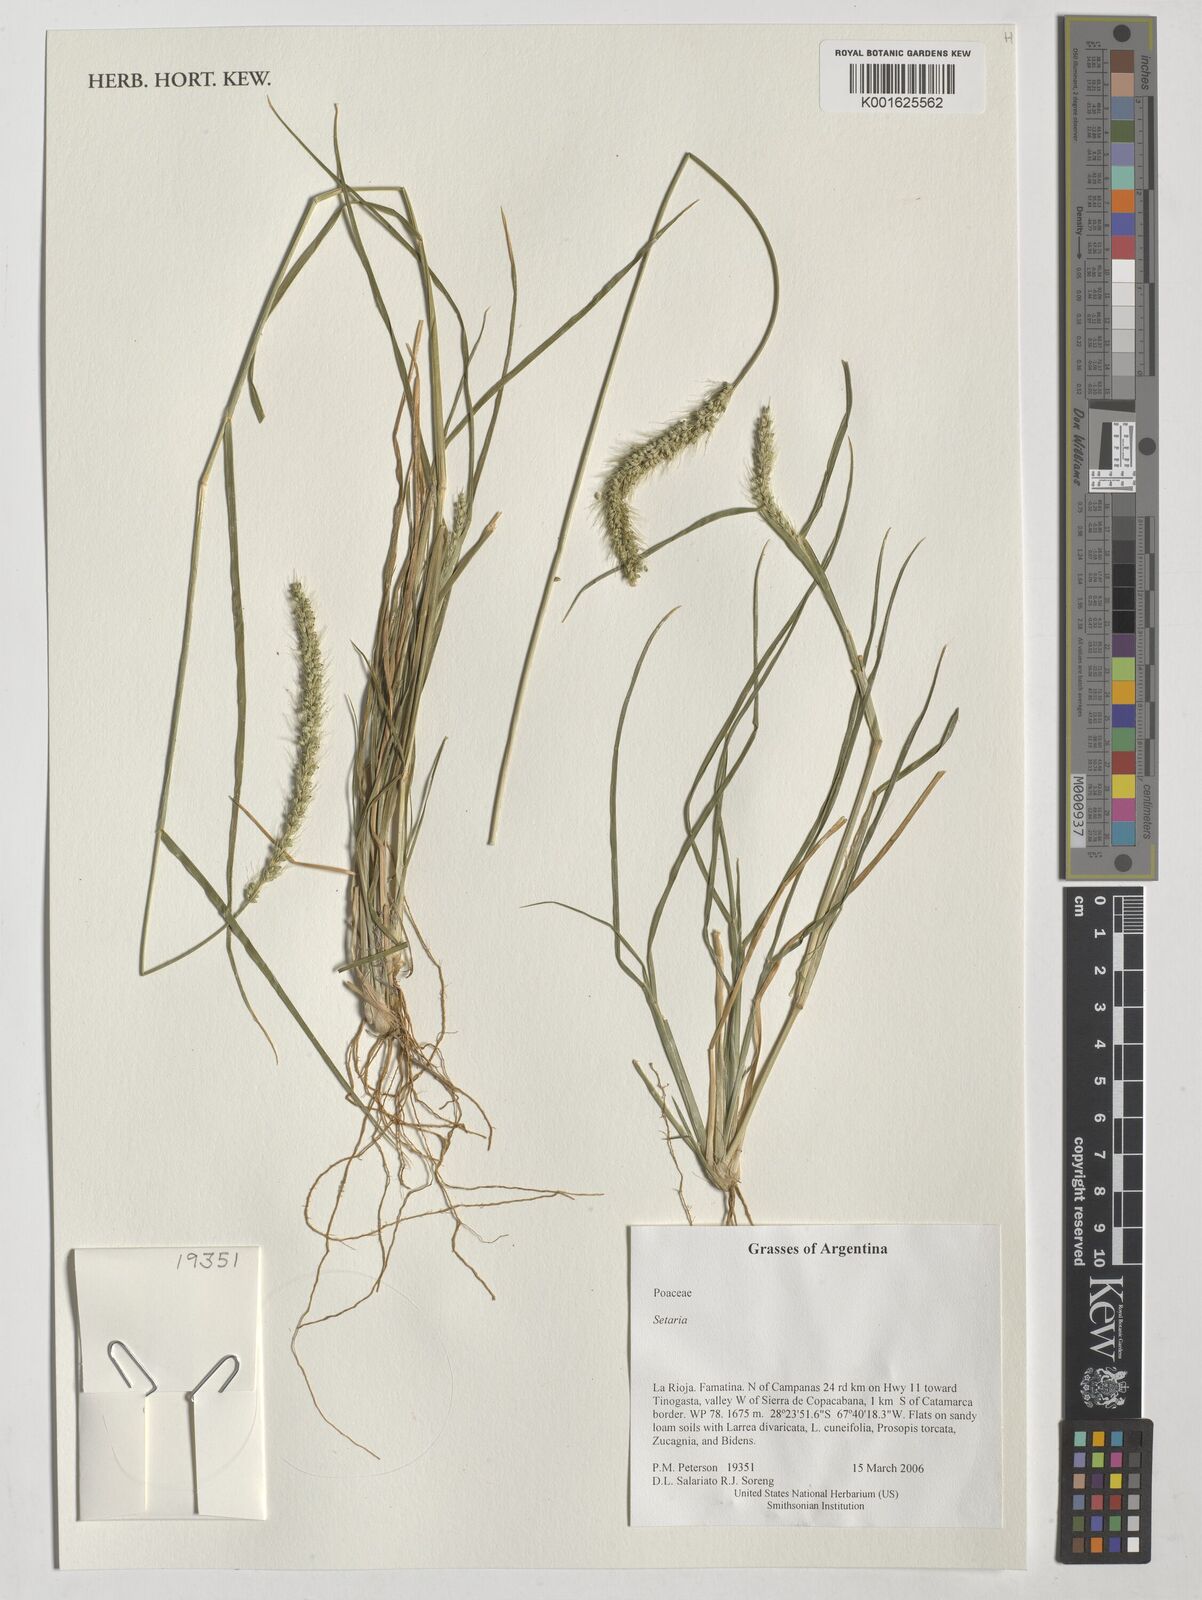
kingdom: Plantae
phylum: Tracheophyta
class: Liliopsida
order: Poales
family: Poaceae
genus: Setaria
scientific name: Setaria
